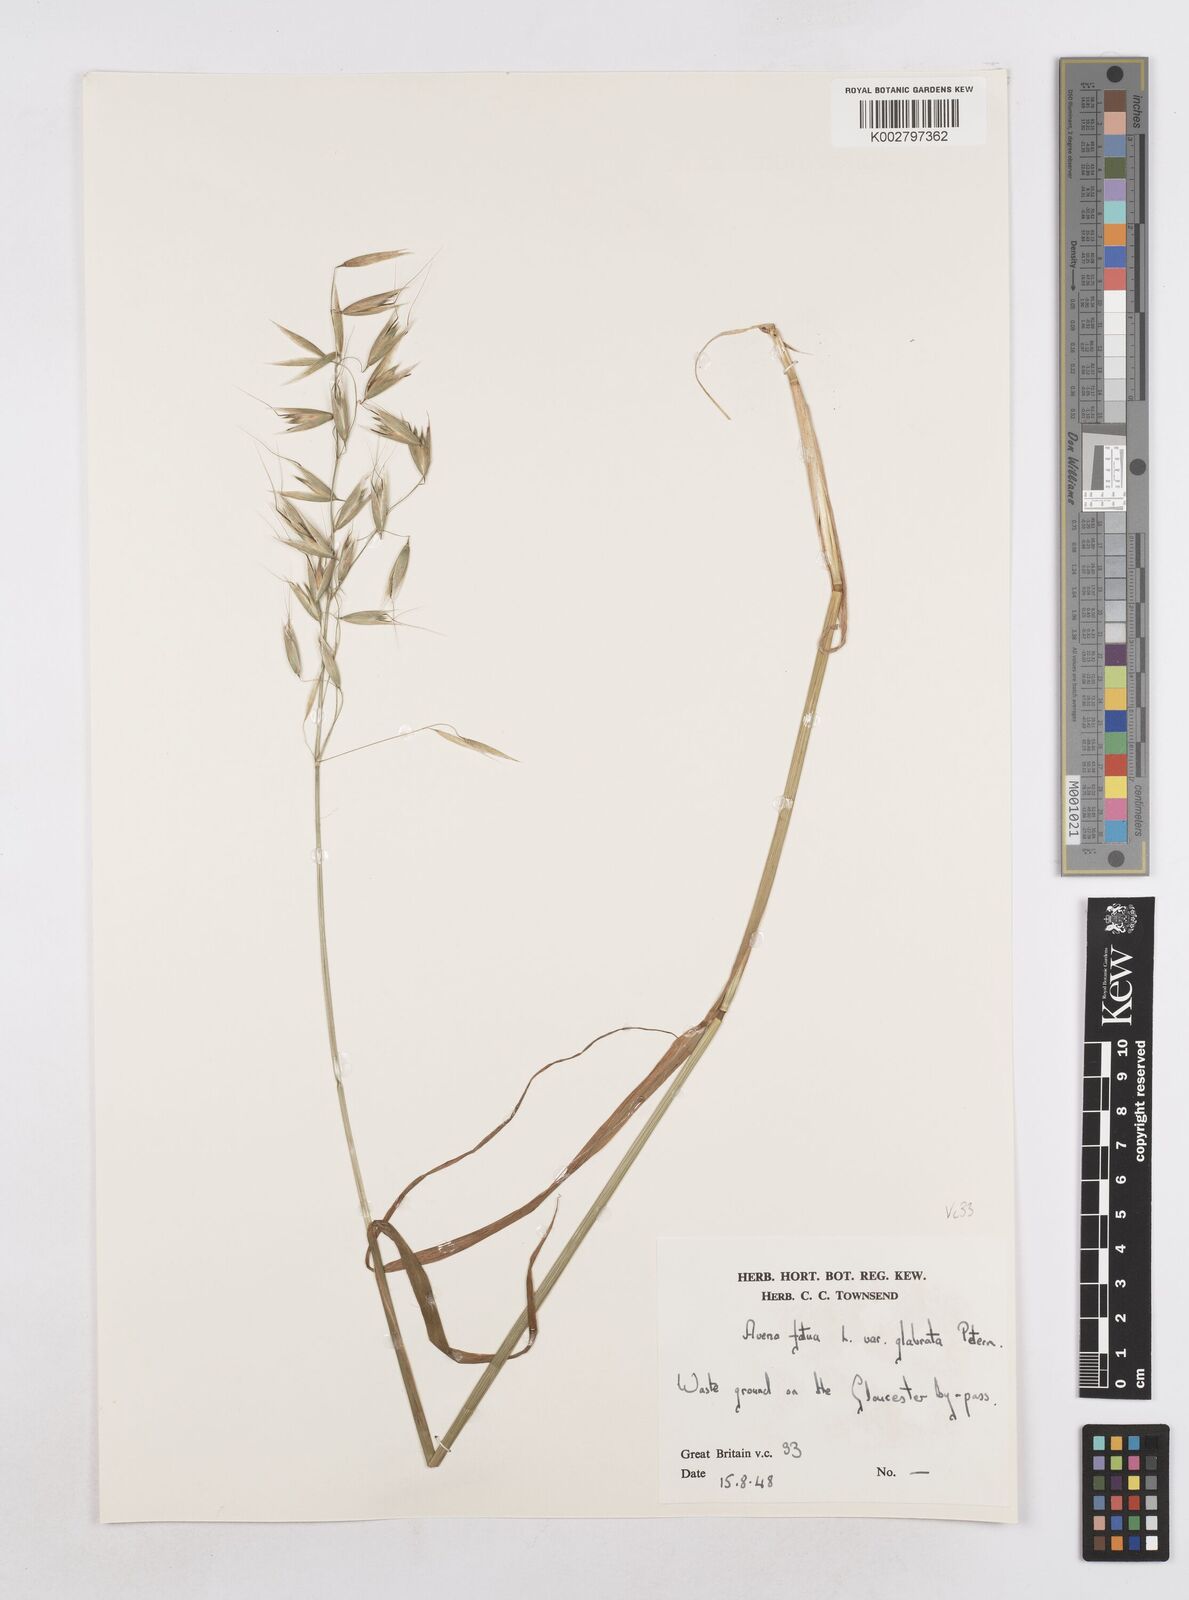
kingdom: Plantae
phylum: Tracheophyta
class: Liliopsida
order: Poales
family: Poaceae
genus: Avena
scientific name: Avena fatua
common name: Wild oat
